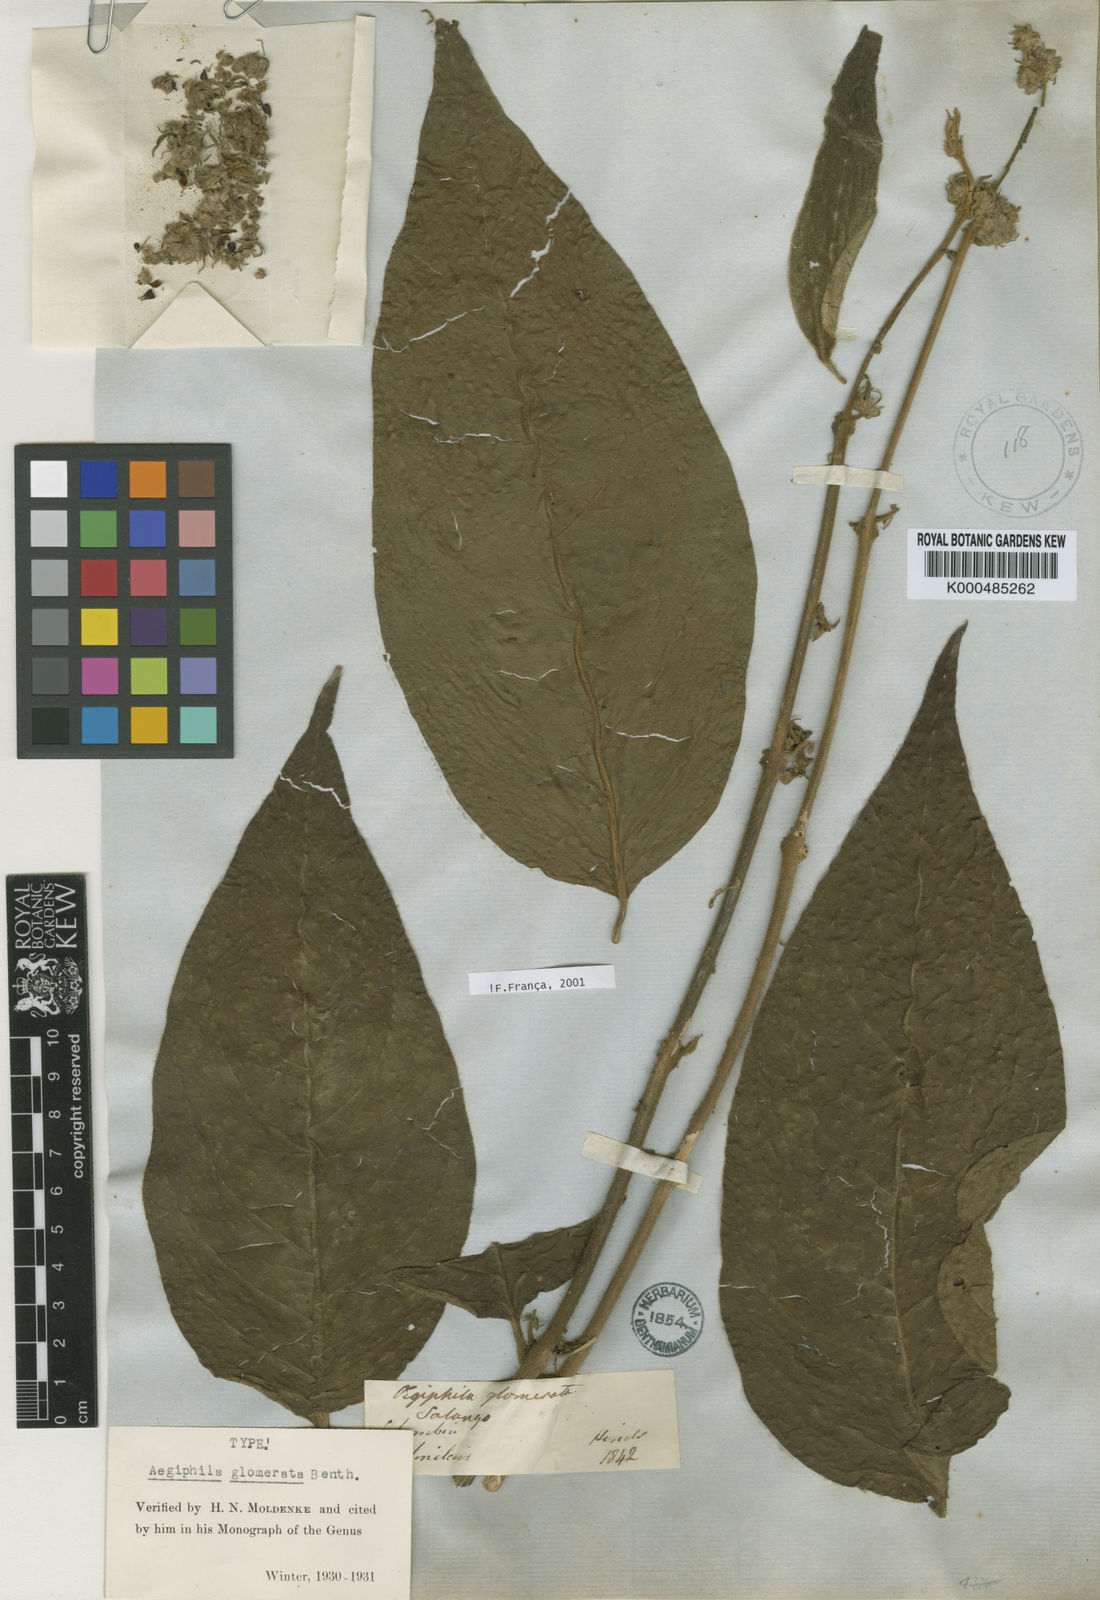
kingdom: Plantae
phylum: Tracheophyta
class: Magnoliopsida
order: Lamiales
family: Lamiaceae
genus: Aegiphila
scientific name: Aegiphila glomerata
